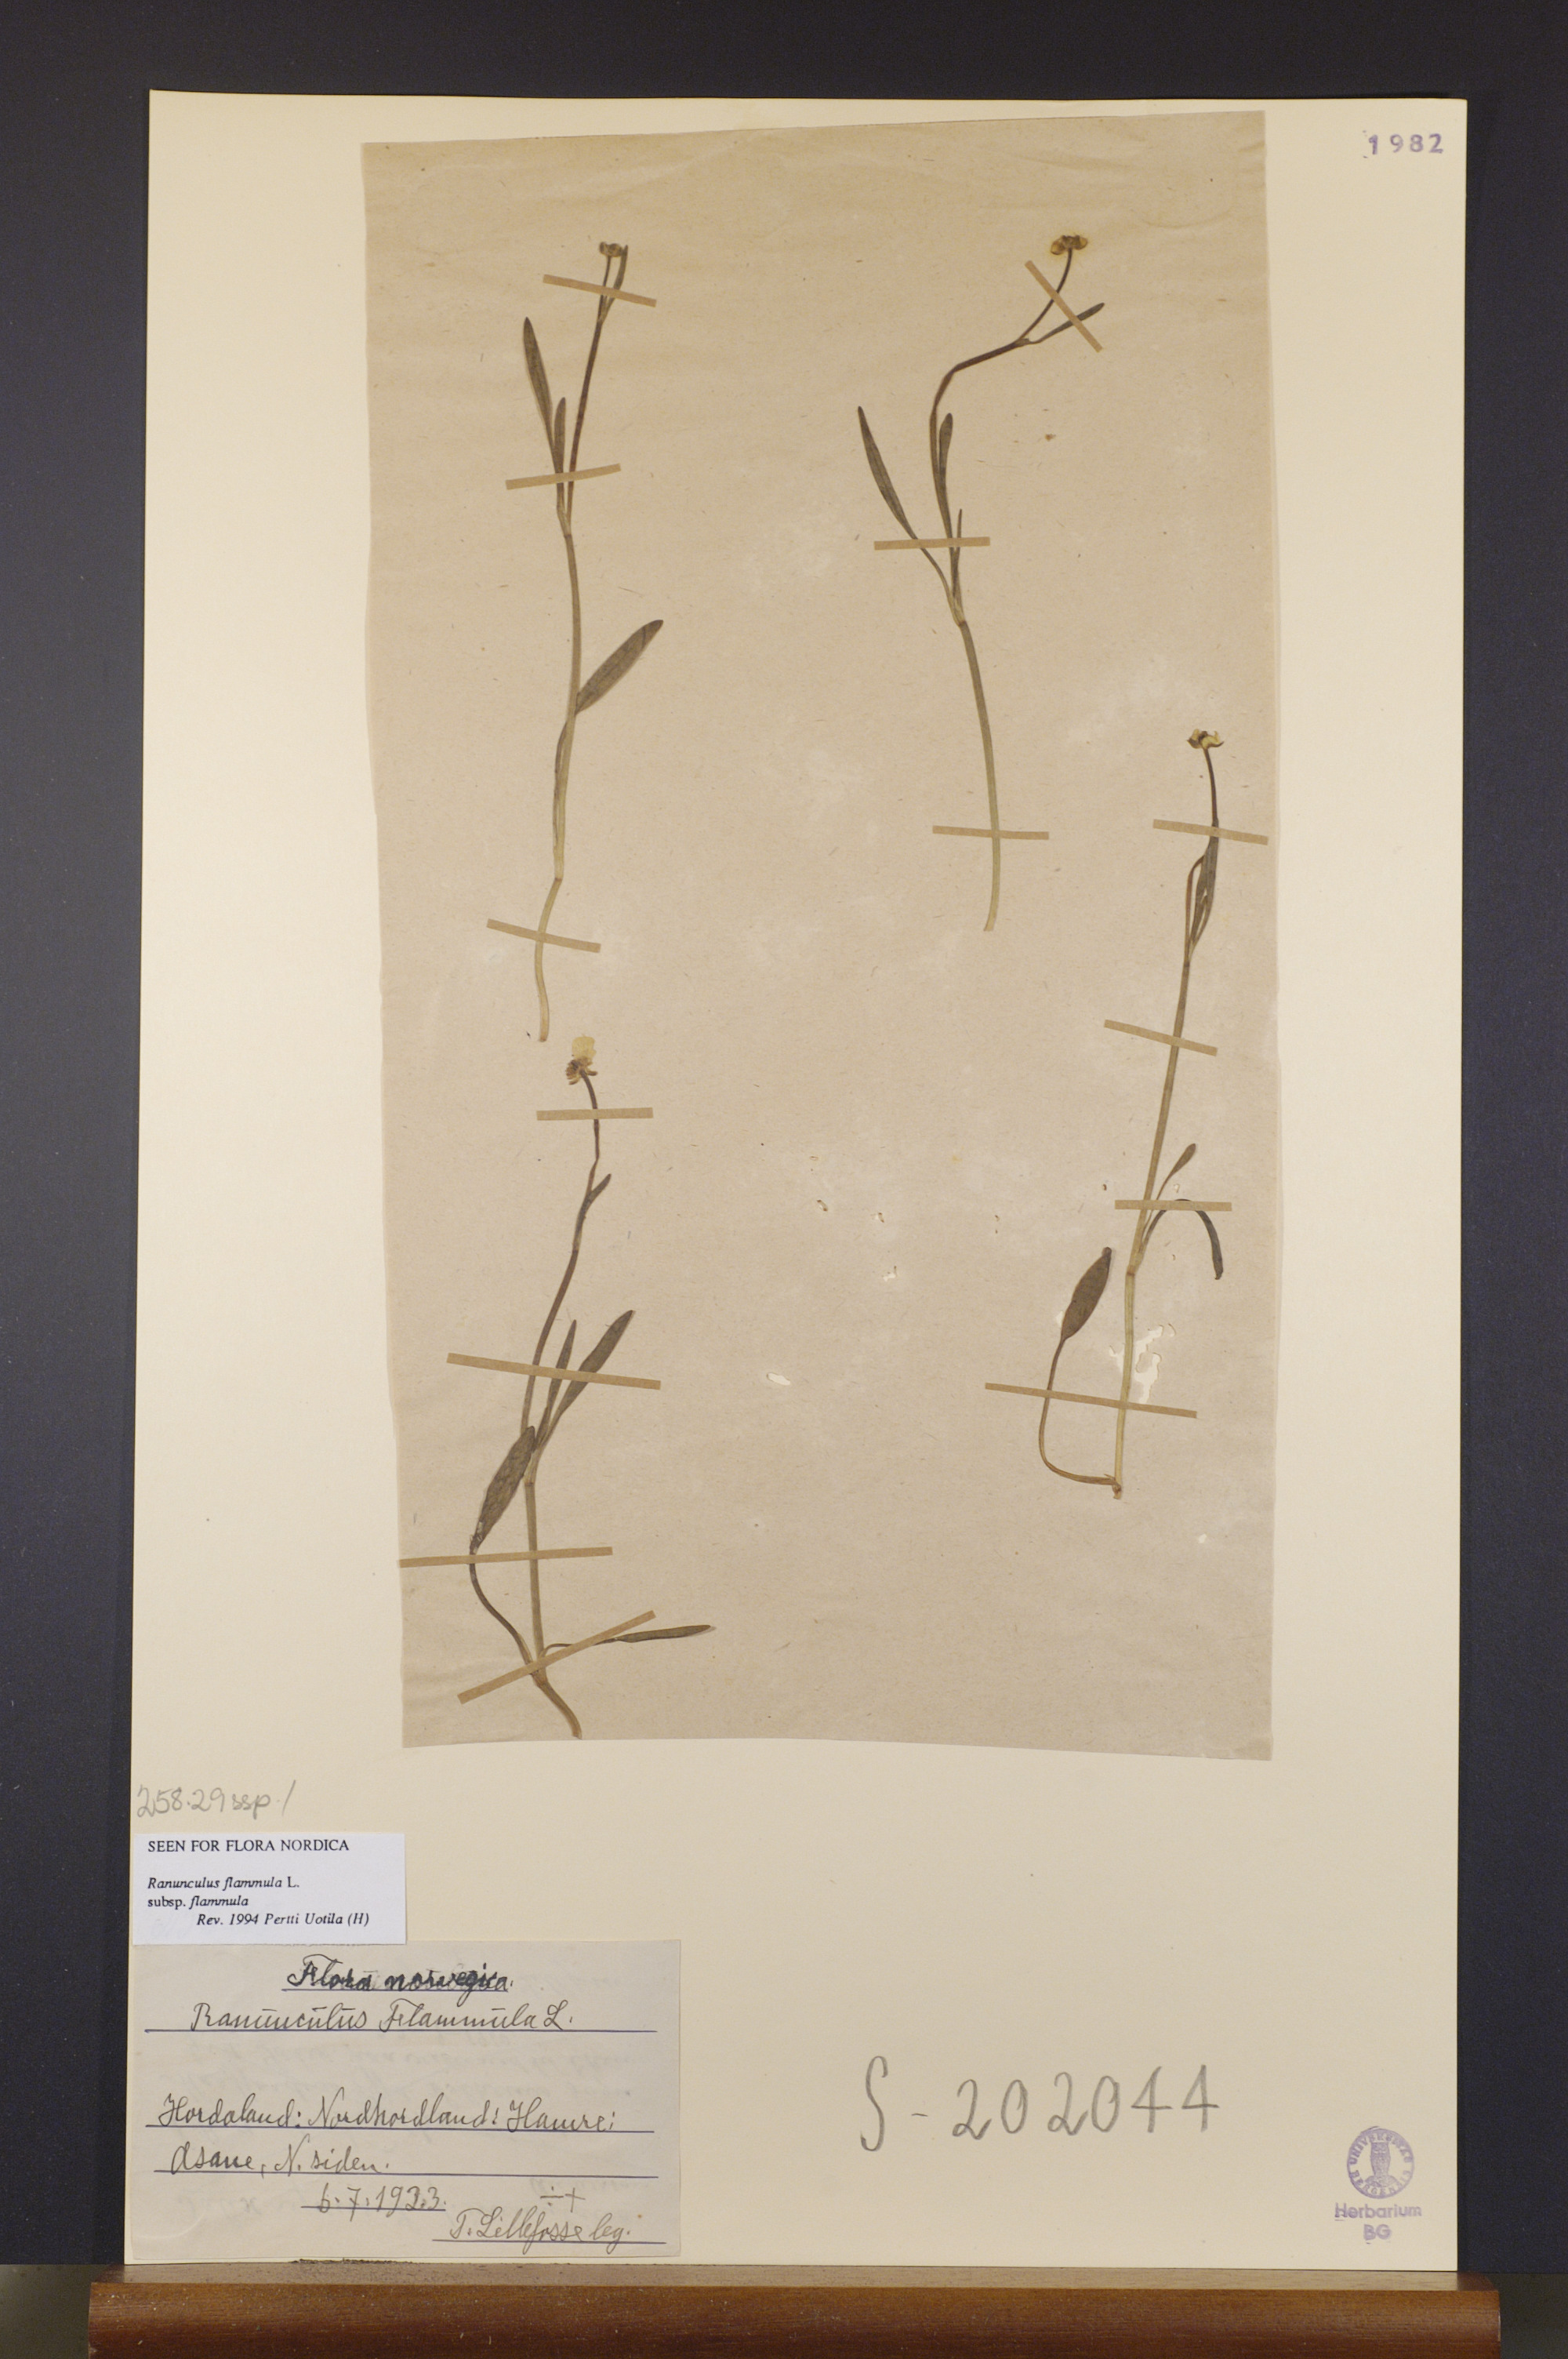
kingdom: Plantae
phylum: Tracheophyta
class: Magnoliopsida
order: Ranunculales
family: Ranunculaceae
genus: Ranunculus
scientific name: Ranunculus flammula
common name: Lesser spearwort
